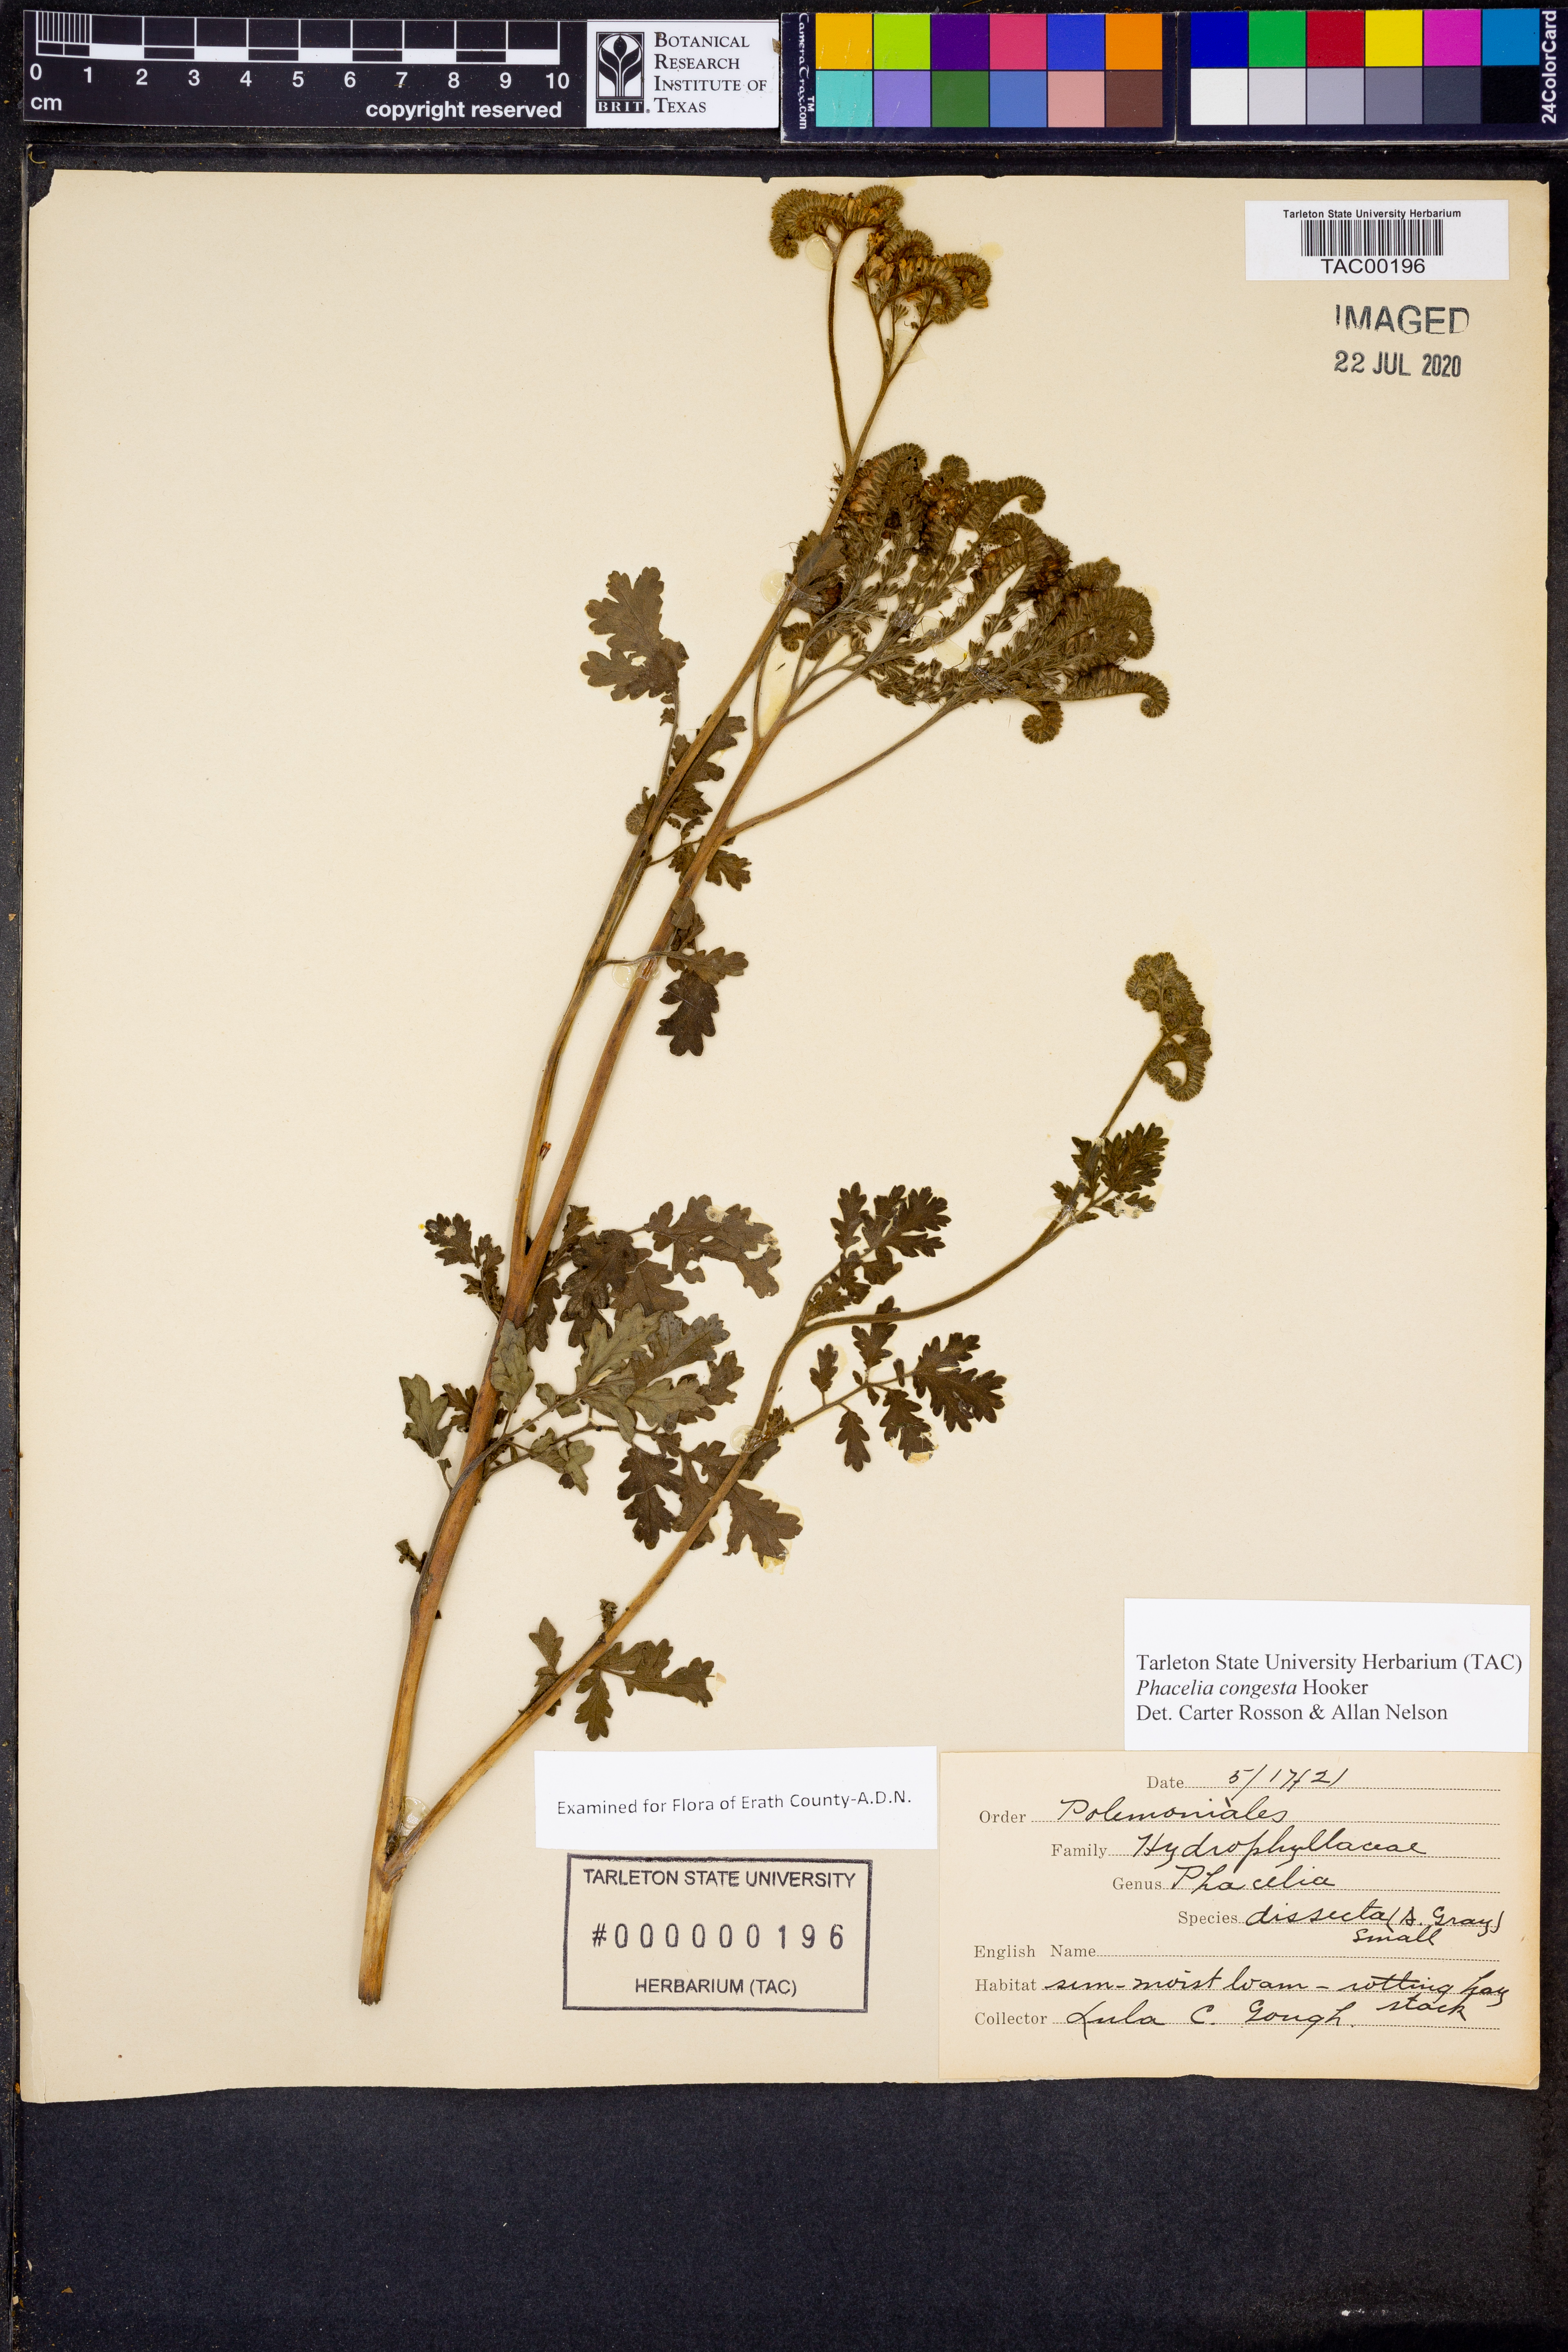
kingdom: Plantae
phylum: Tracheophyta
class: Magnoliopsida
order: Boraginales
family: Hydrophyllaceae
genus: Phacelia
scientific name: Phacelia congesta
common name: Blue curls
